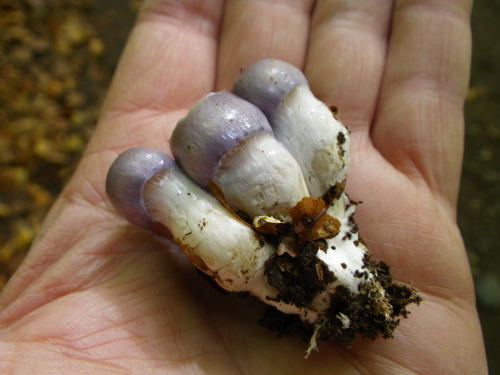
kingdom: Fungi
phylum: Basidiomycota
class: Agaricomycetes
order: Agaricales
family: Cortinariaceae
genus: Thaxterogaster
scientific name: Thaxterogaster croceocoeruleus
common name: blågullig slørhat
